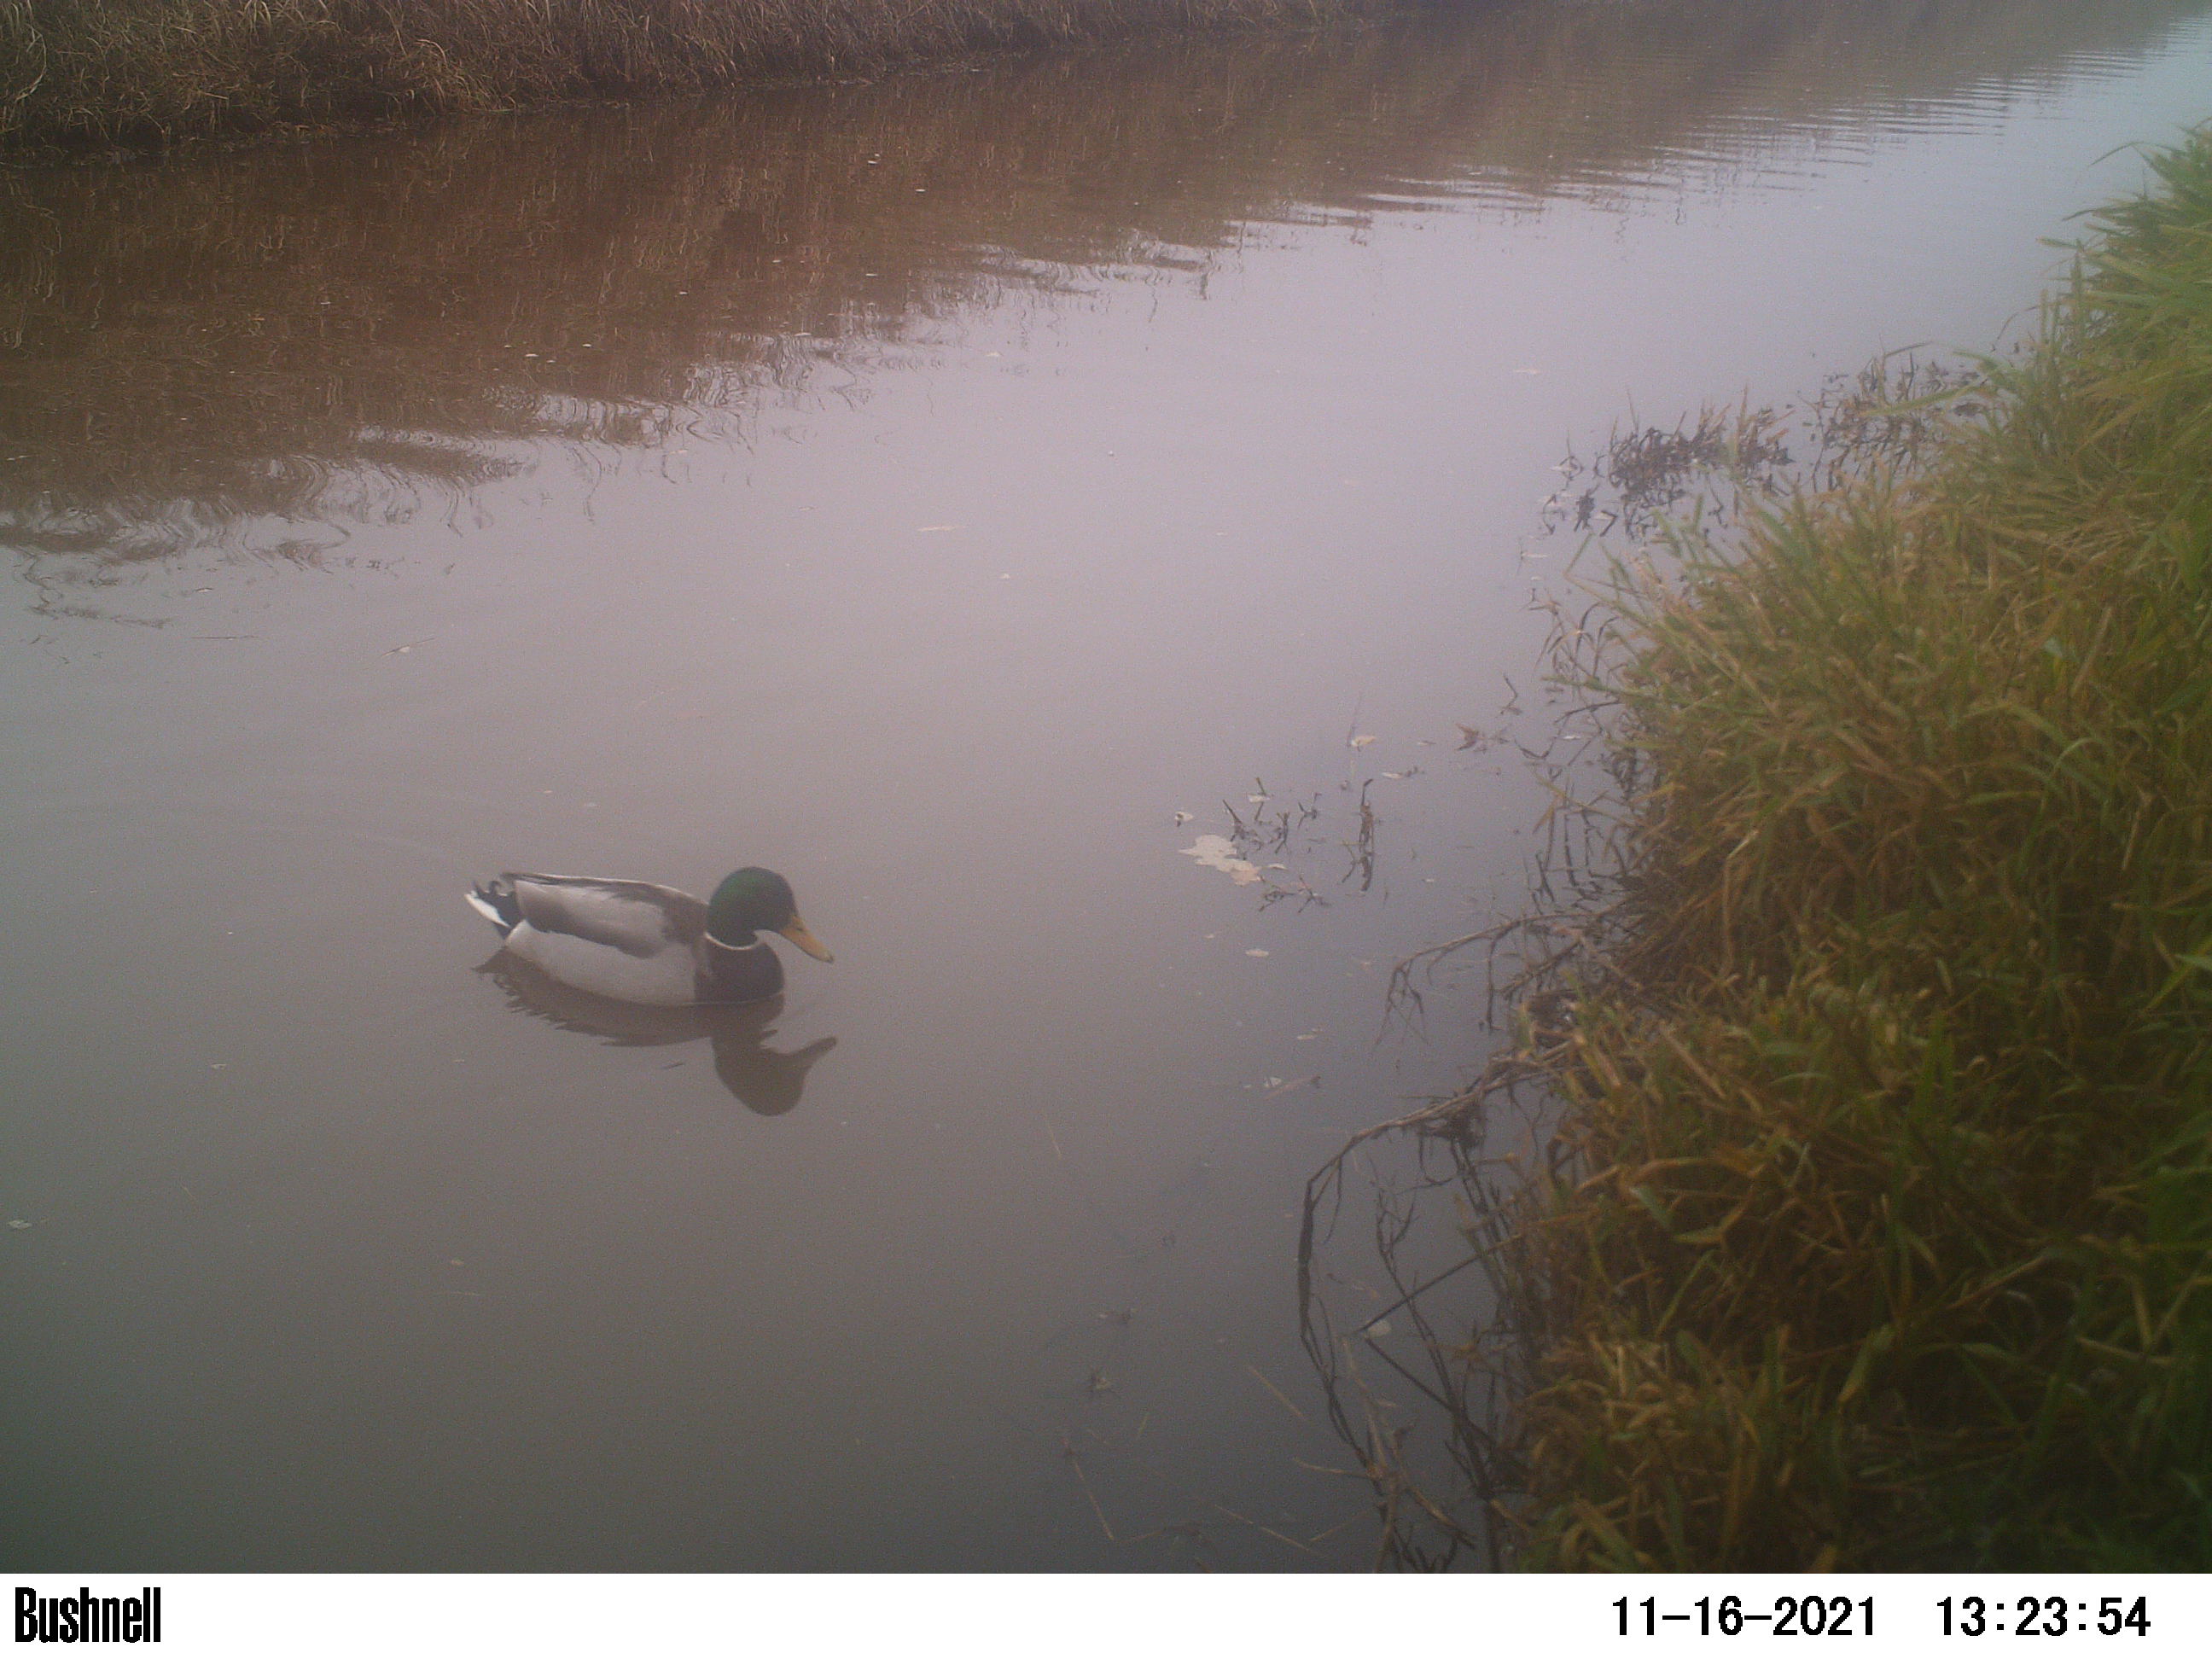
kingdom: Animalia
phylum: Chordata
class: Aves
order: Anseriformes
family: Anatidae
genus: Anas
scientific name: Anas
